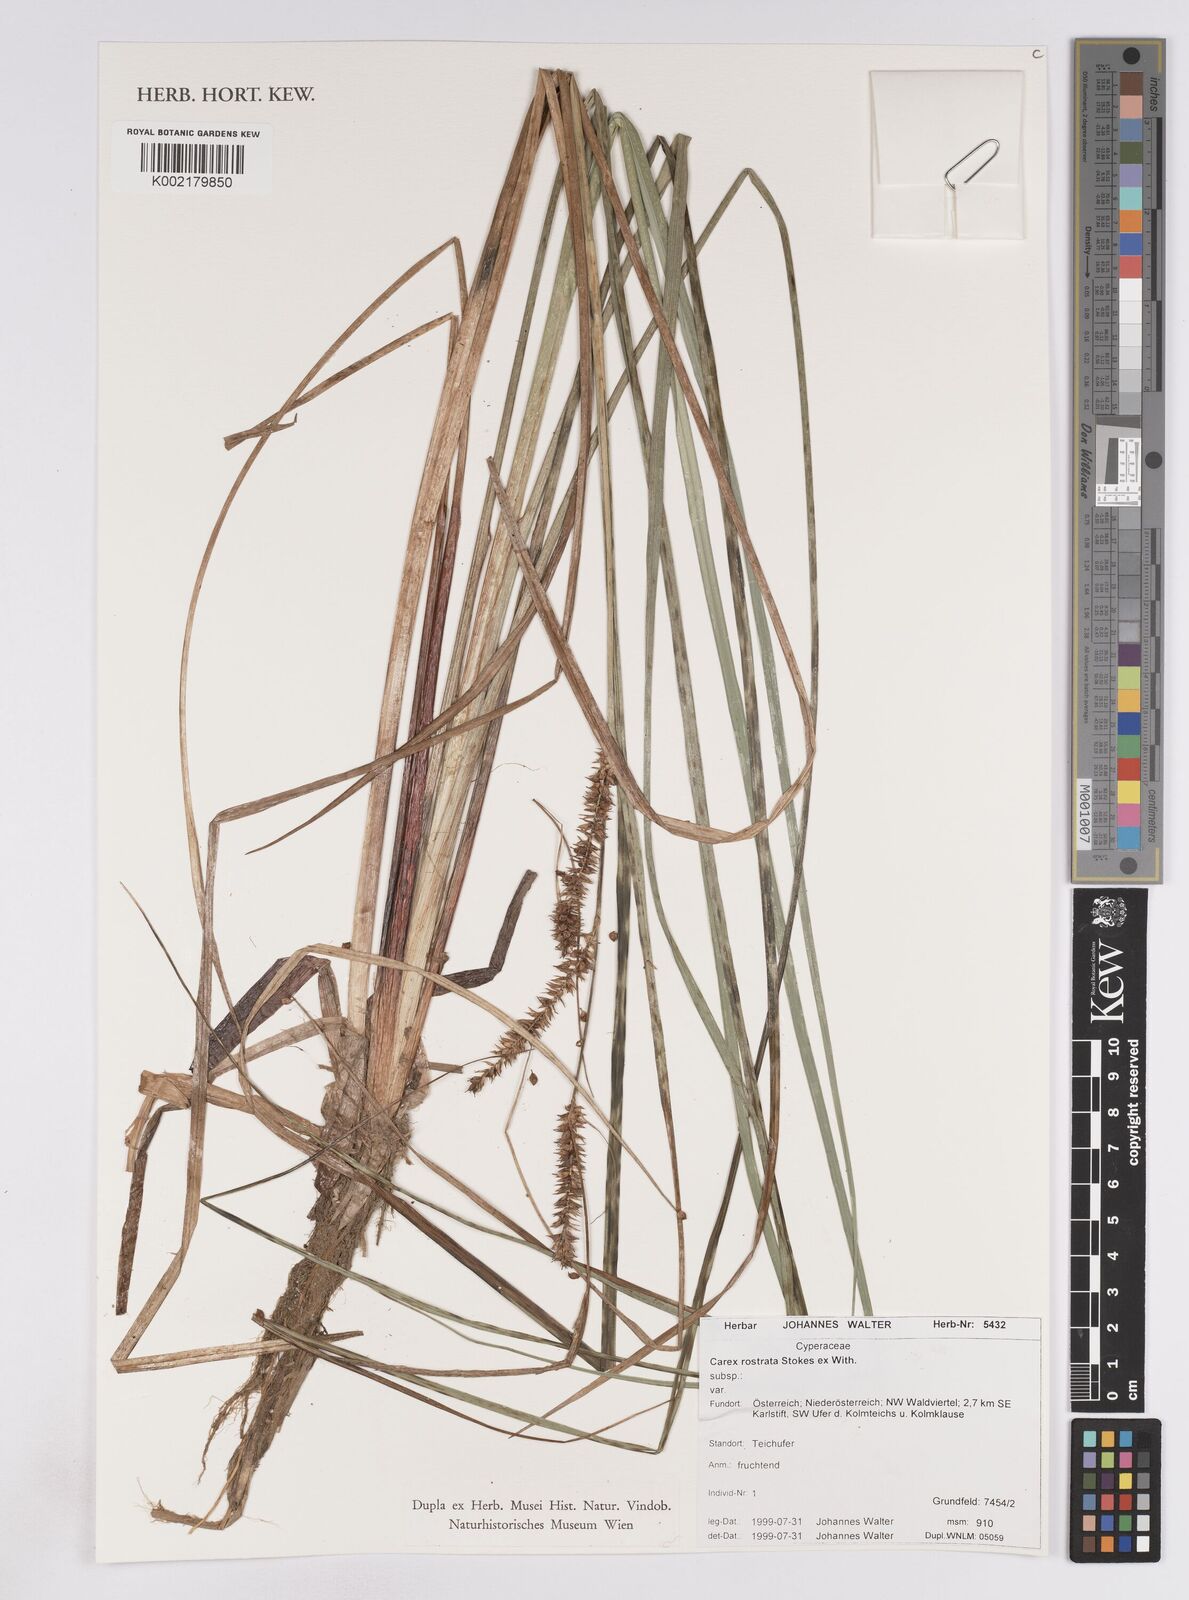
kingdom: Plantae
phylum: Tracheophyta
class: Liliopsida
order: Poales
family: Cyperaceae
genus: Carex
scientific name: Carex rostrata
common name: Bottle sedge
